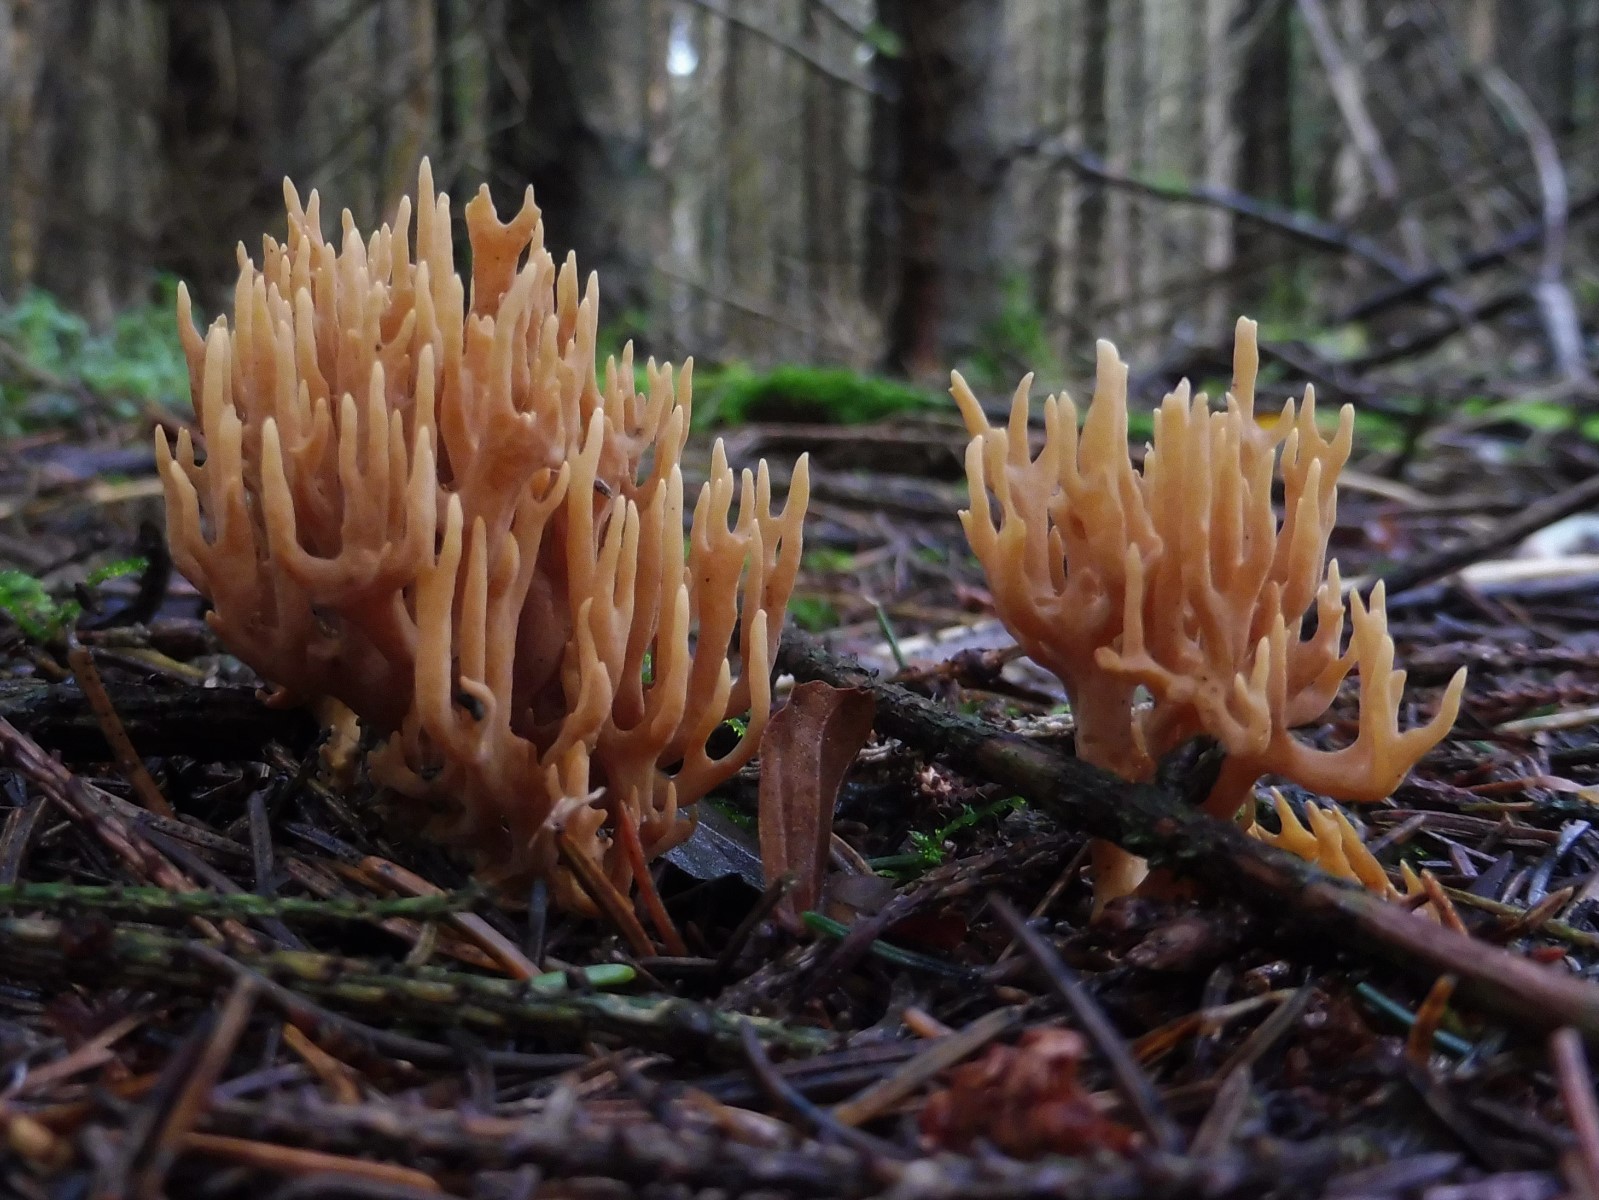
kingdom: Fungi
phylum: Basidiomycota
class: Agaricomycetes
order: Gomphales
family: Gomphaceae
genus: Phaeoclavulina
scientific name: Phaeoclavulina eumorpha
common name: gran-koralsvamp
